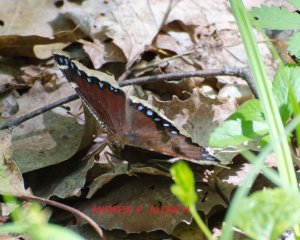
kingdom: Animalia
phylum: Arthropoda
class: Insecta
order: Lepidoptera
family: Nymphalidae
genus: Nymphalis
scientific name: Nymphalis antiopa
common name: Mourning Cloak
